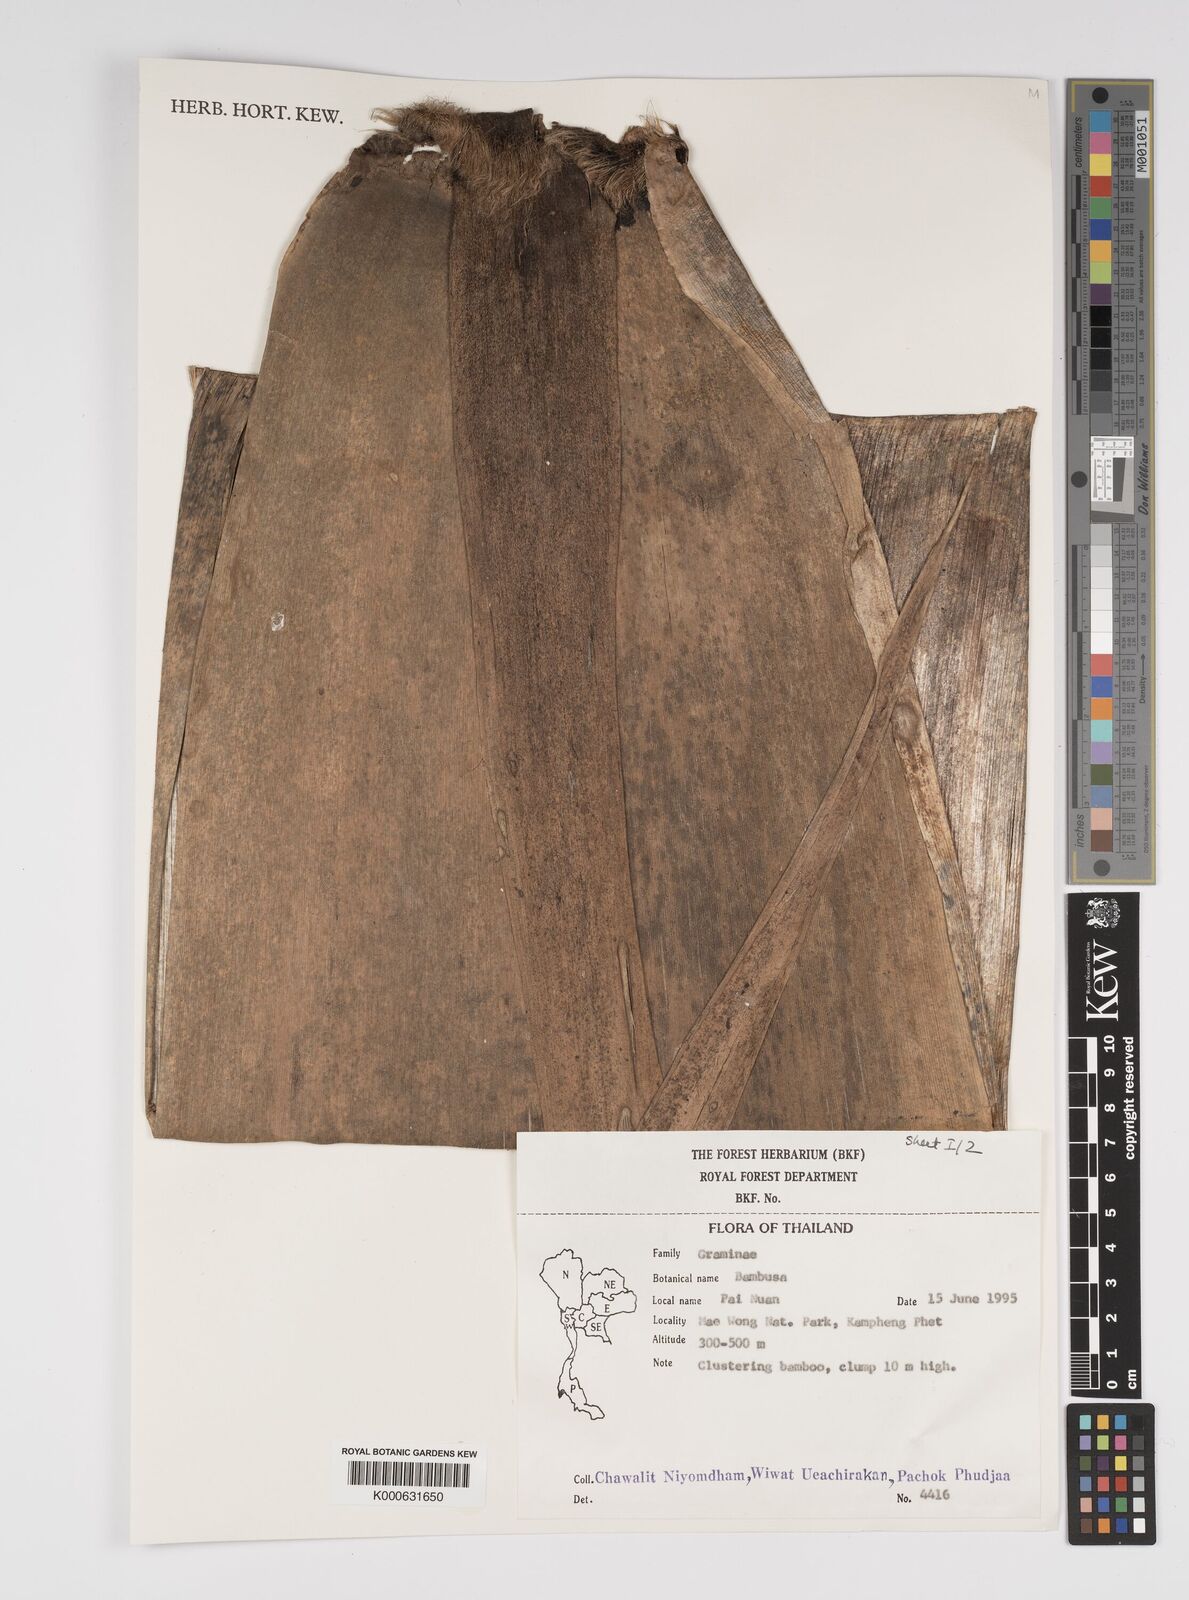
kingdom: Plantae
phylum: Tracheophyta
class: Liliopsida
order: Poales
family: Poaceae
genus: Bambusa
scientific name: Bambusa
